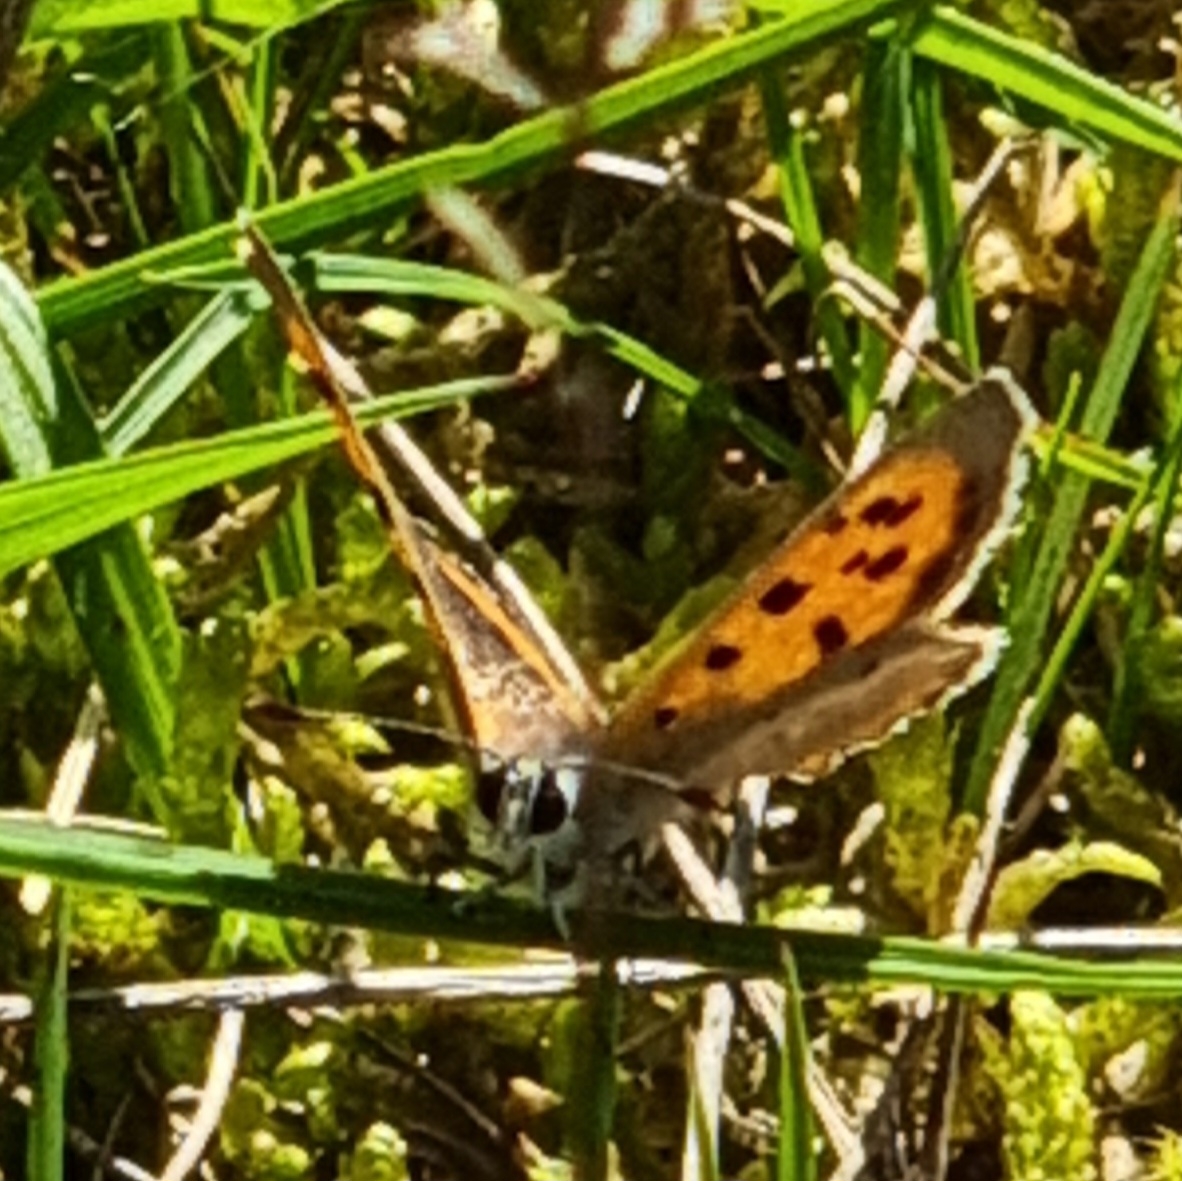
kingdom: Animalia
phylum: Arthropoda
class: Insecta
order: Lepidoptera
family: Lycaenidae
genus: Lycaena
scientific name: Lycaena phlaeas
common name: Lille ildfugl
